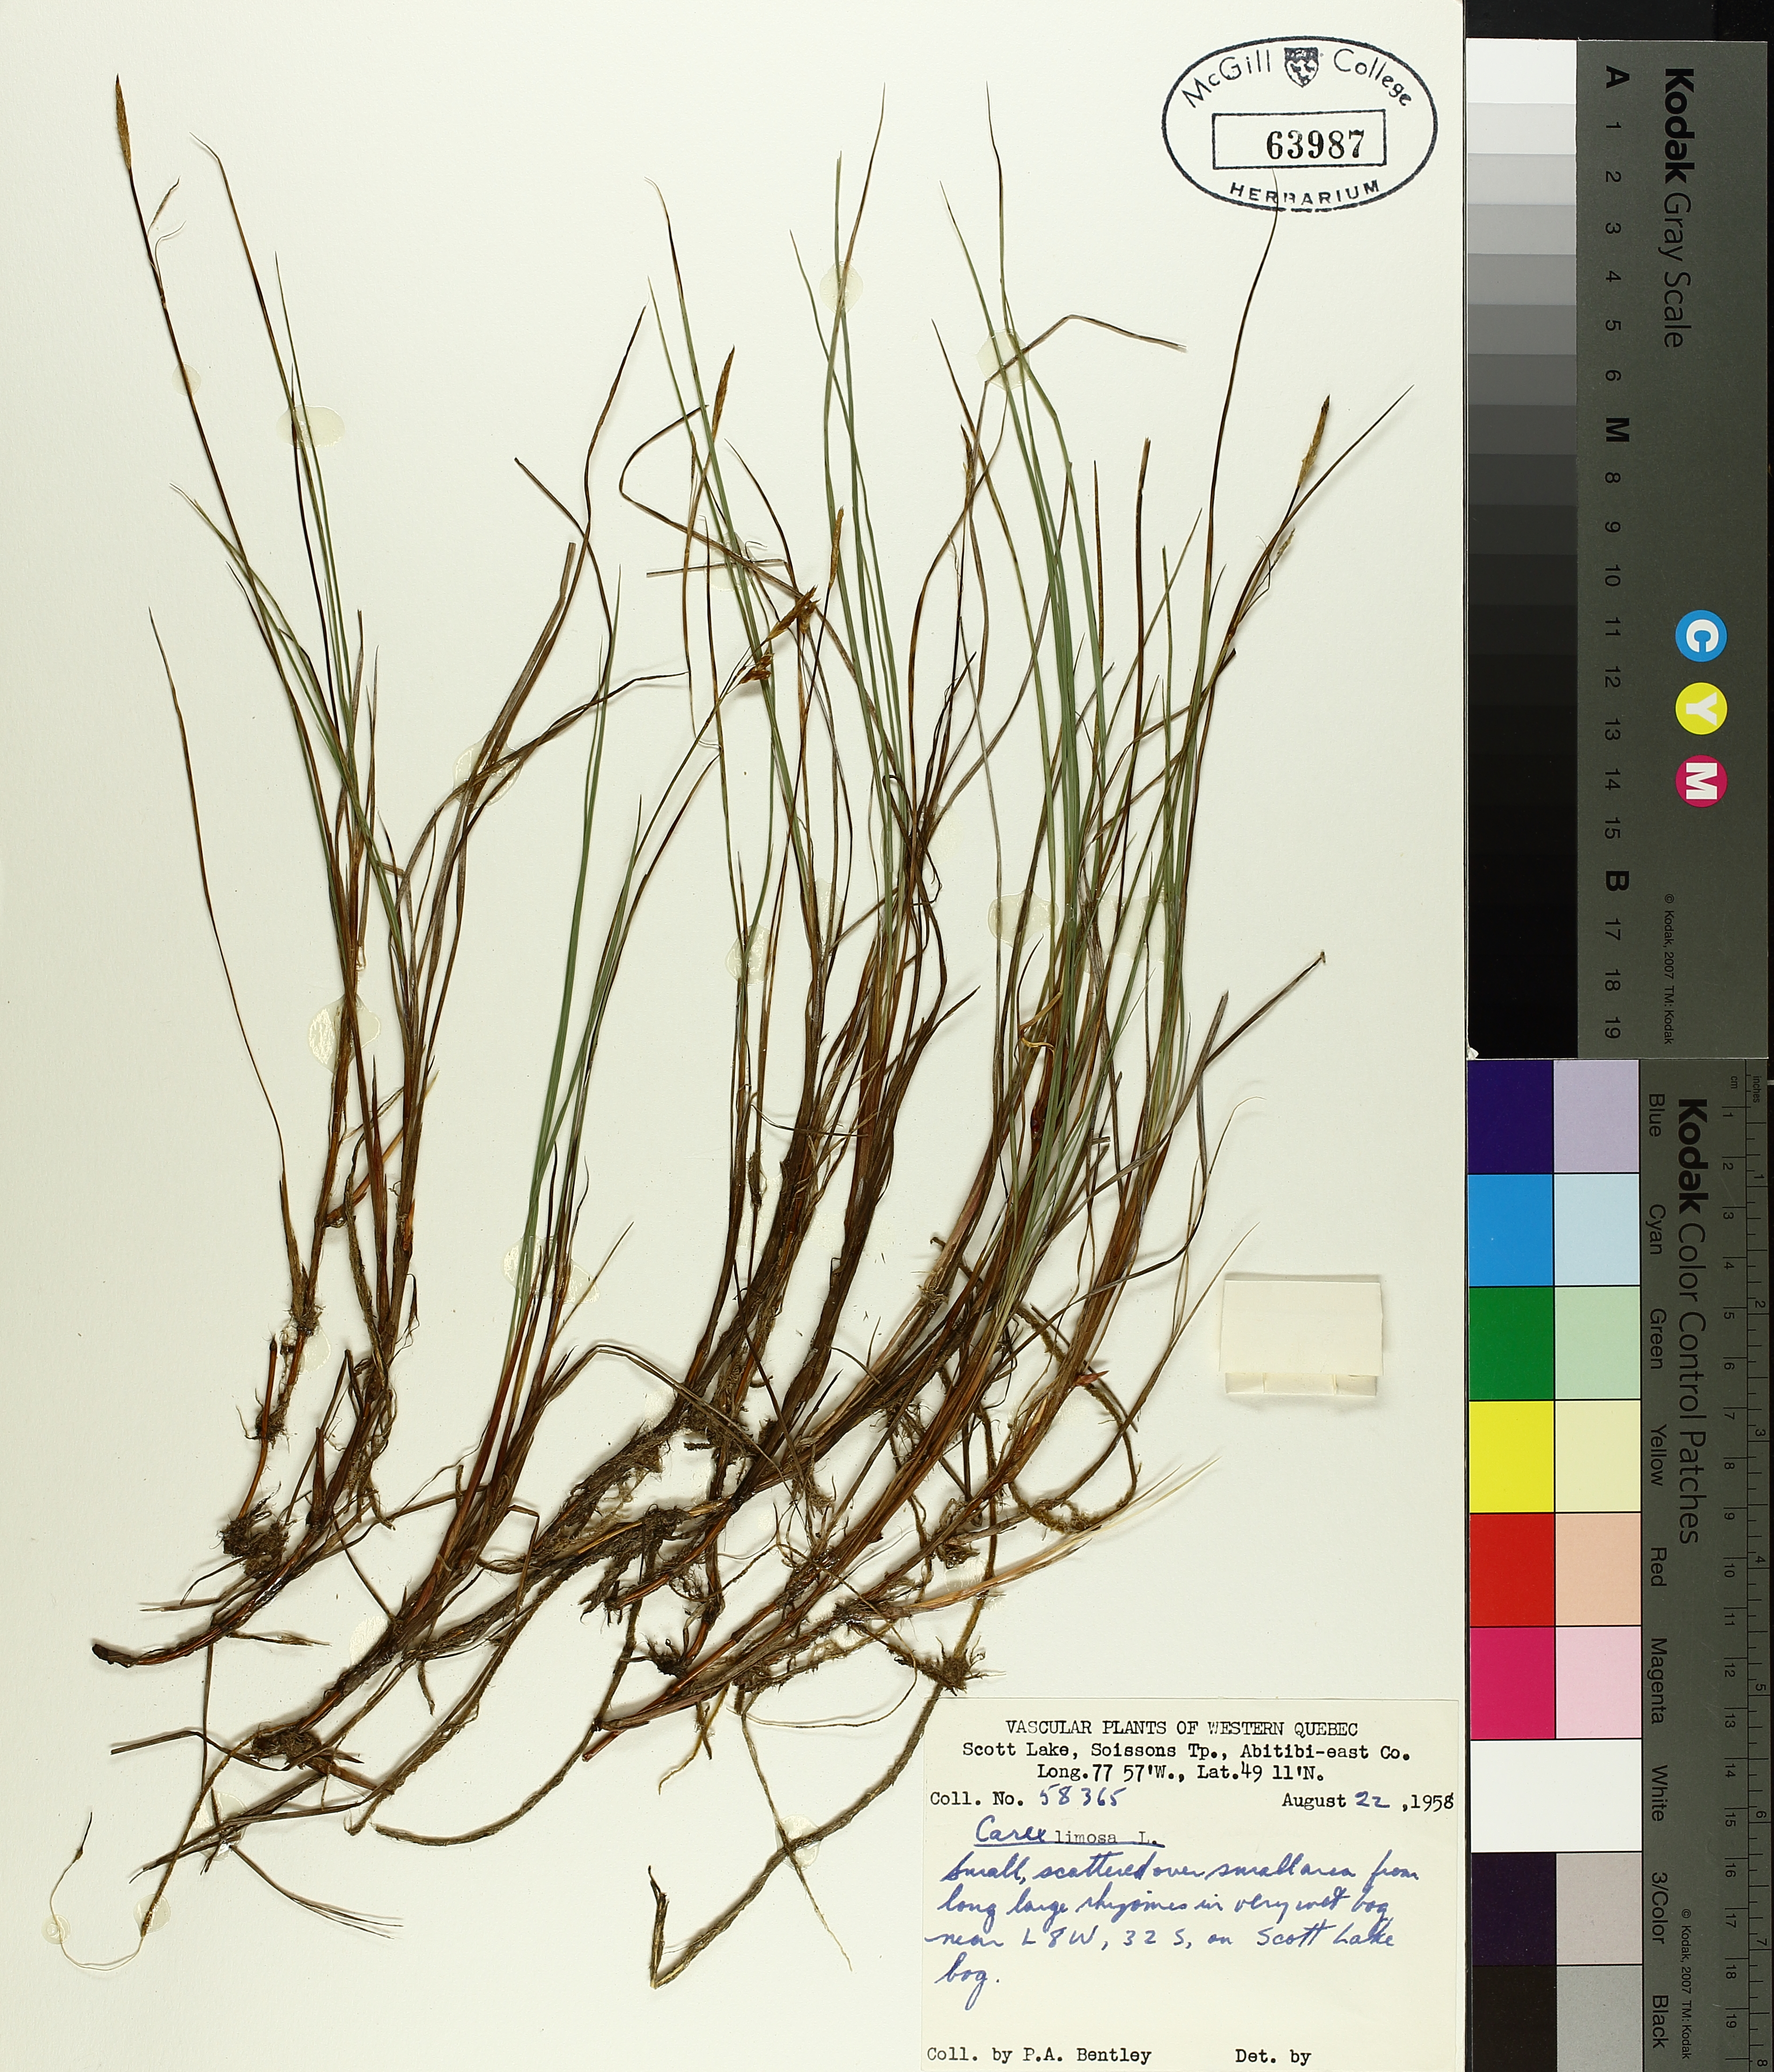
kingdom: Plantae
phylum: Tracheophyta
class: Liliopsida
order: Poales
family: Cyperaceae
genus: Carex
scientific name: Carex limosa
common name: Bog sedge
